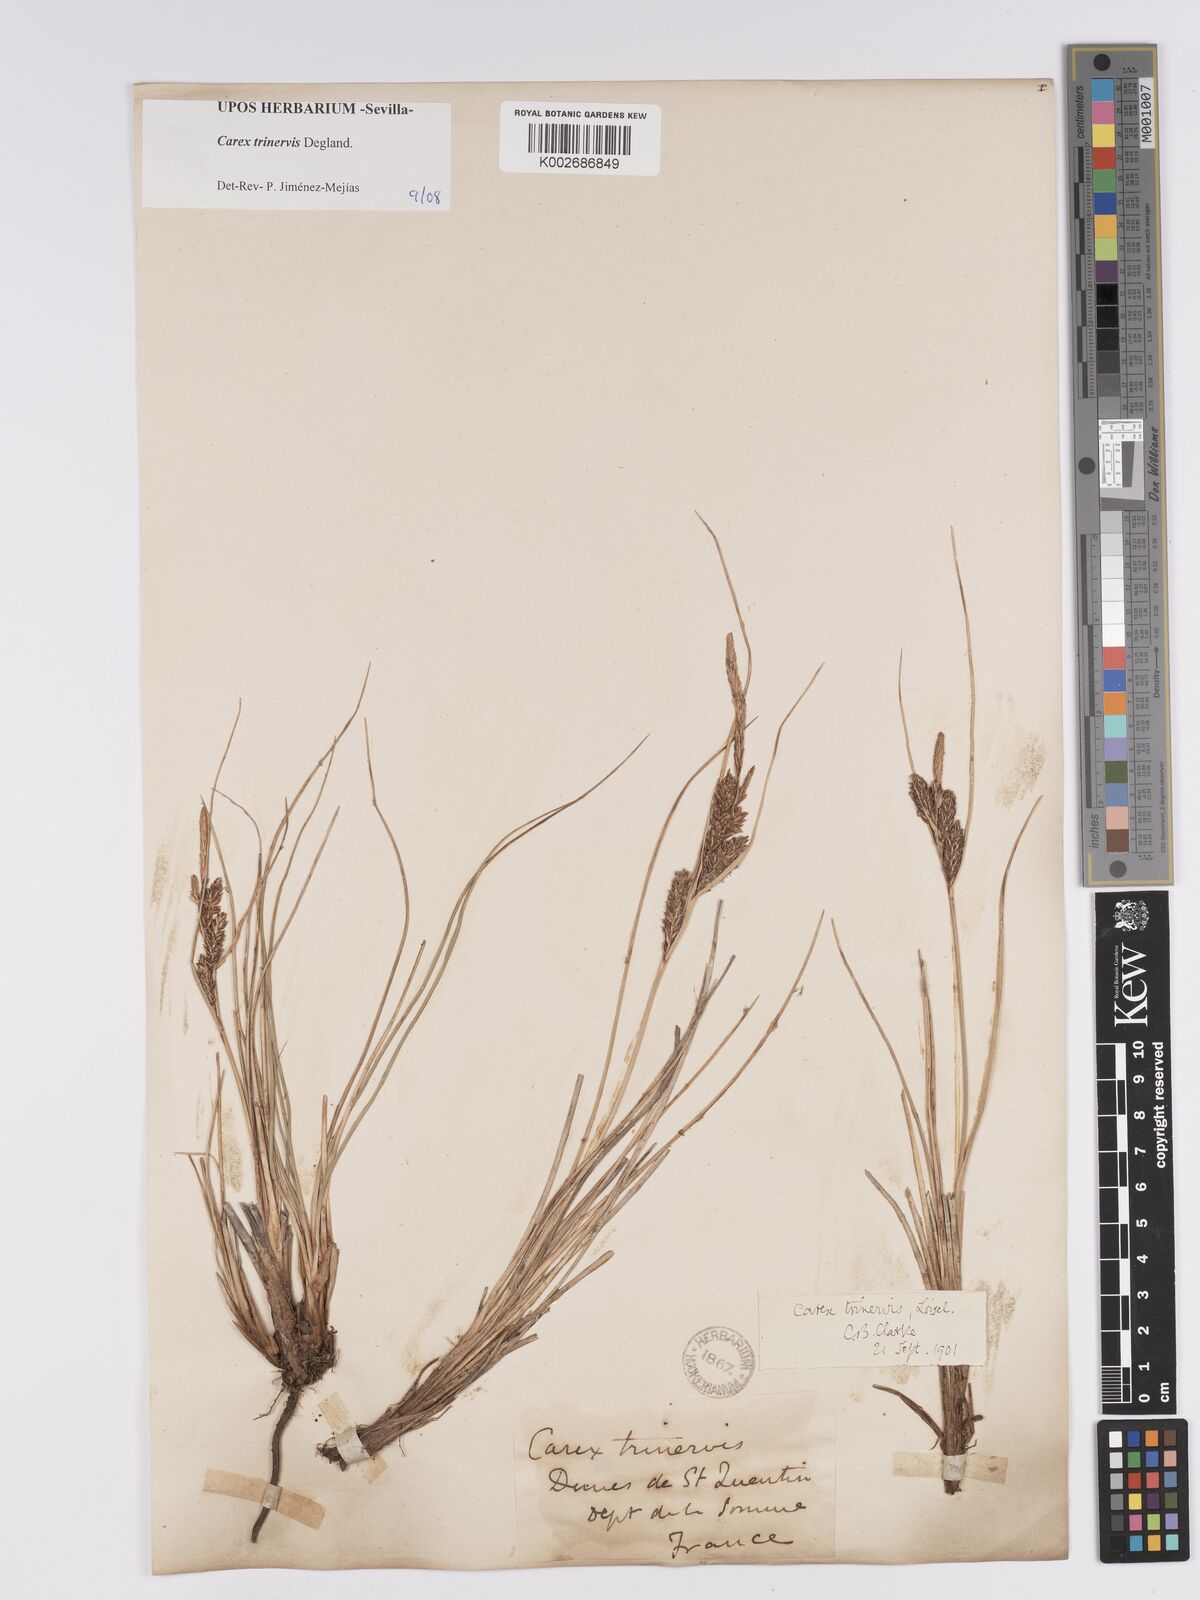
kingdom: Plantae
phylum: Tracheophyta
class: Liliopsida
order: Poales
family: Cyperaceae
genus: Carex
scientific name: Carex trinervis
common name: Three-nerved sedge
